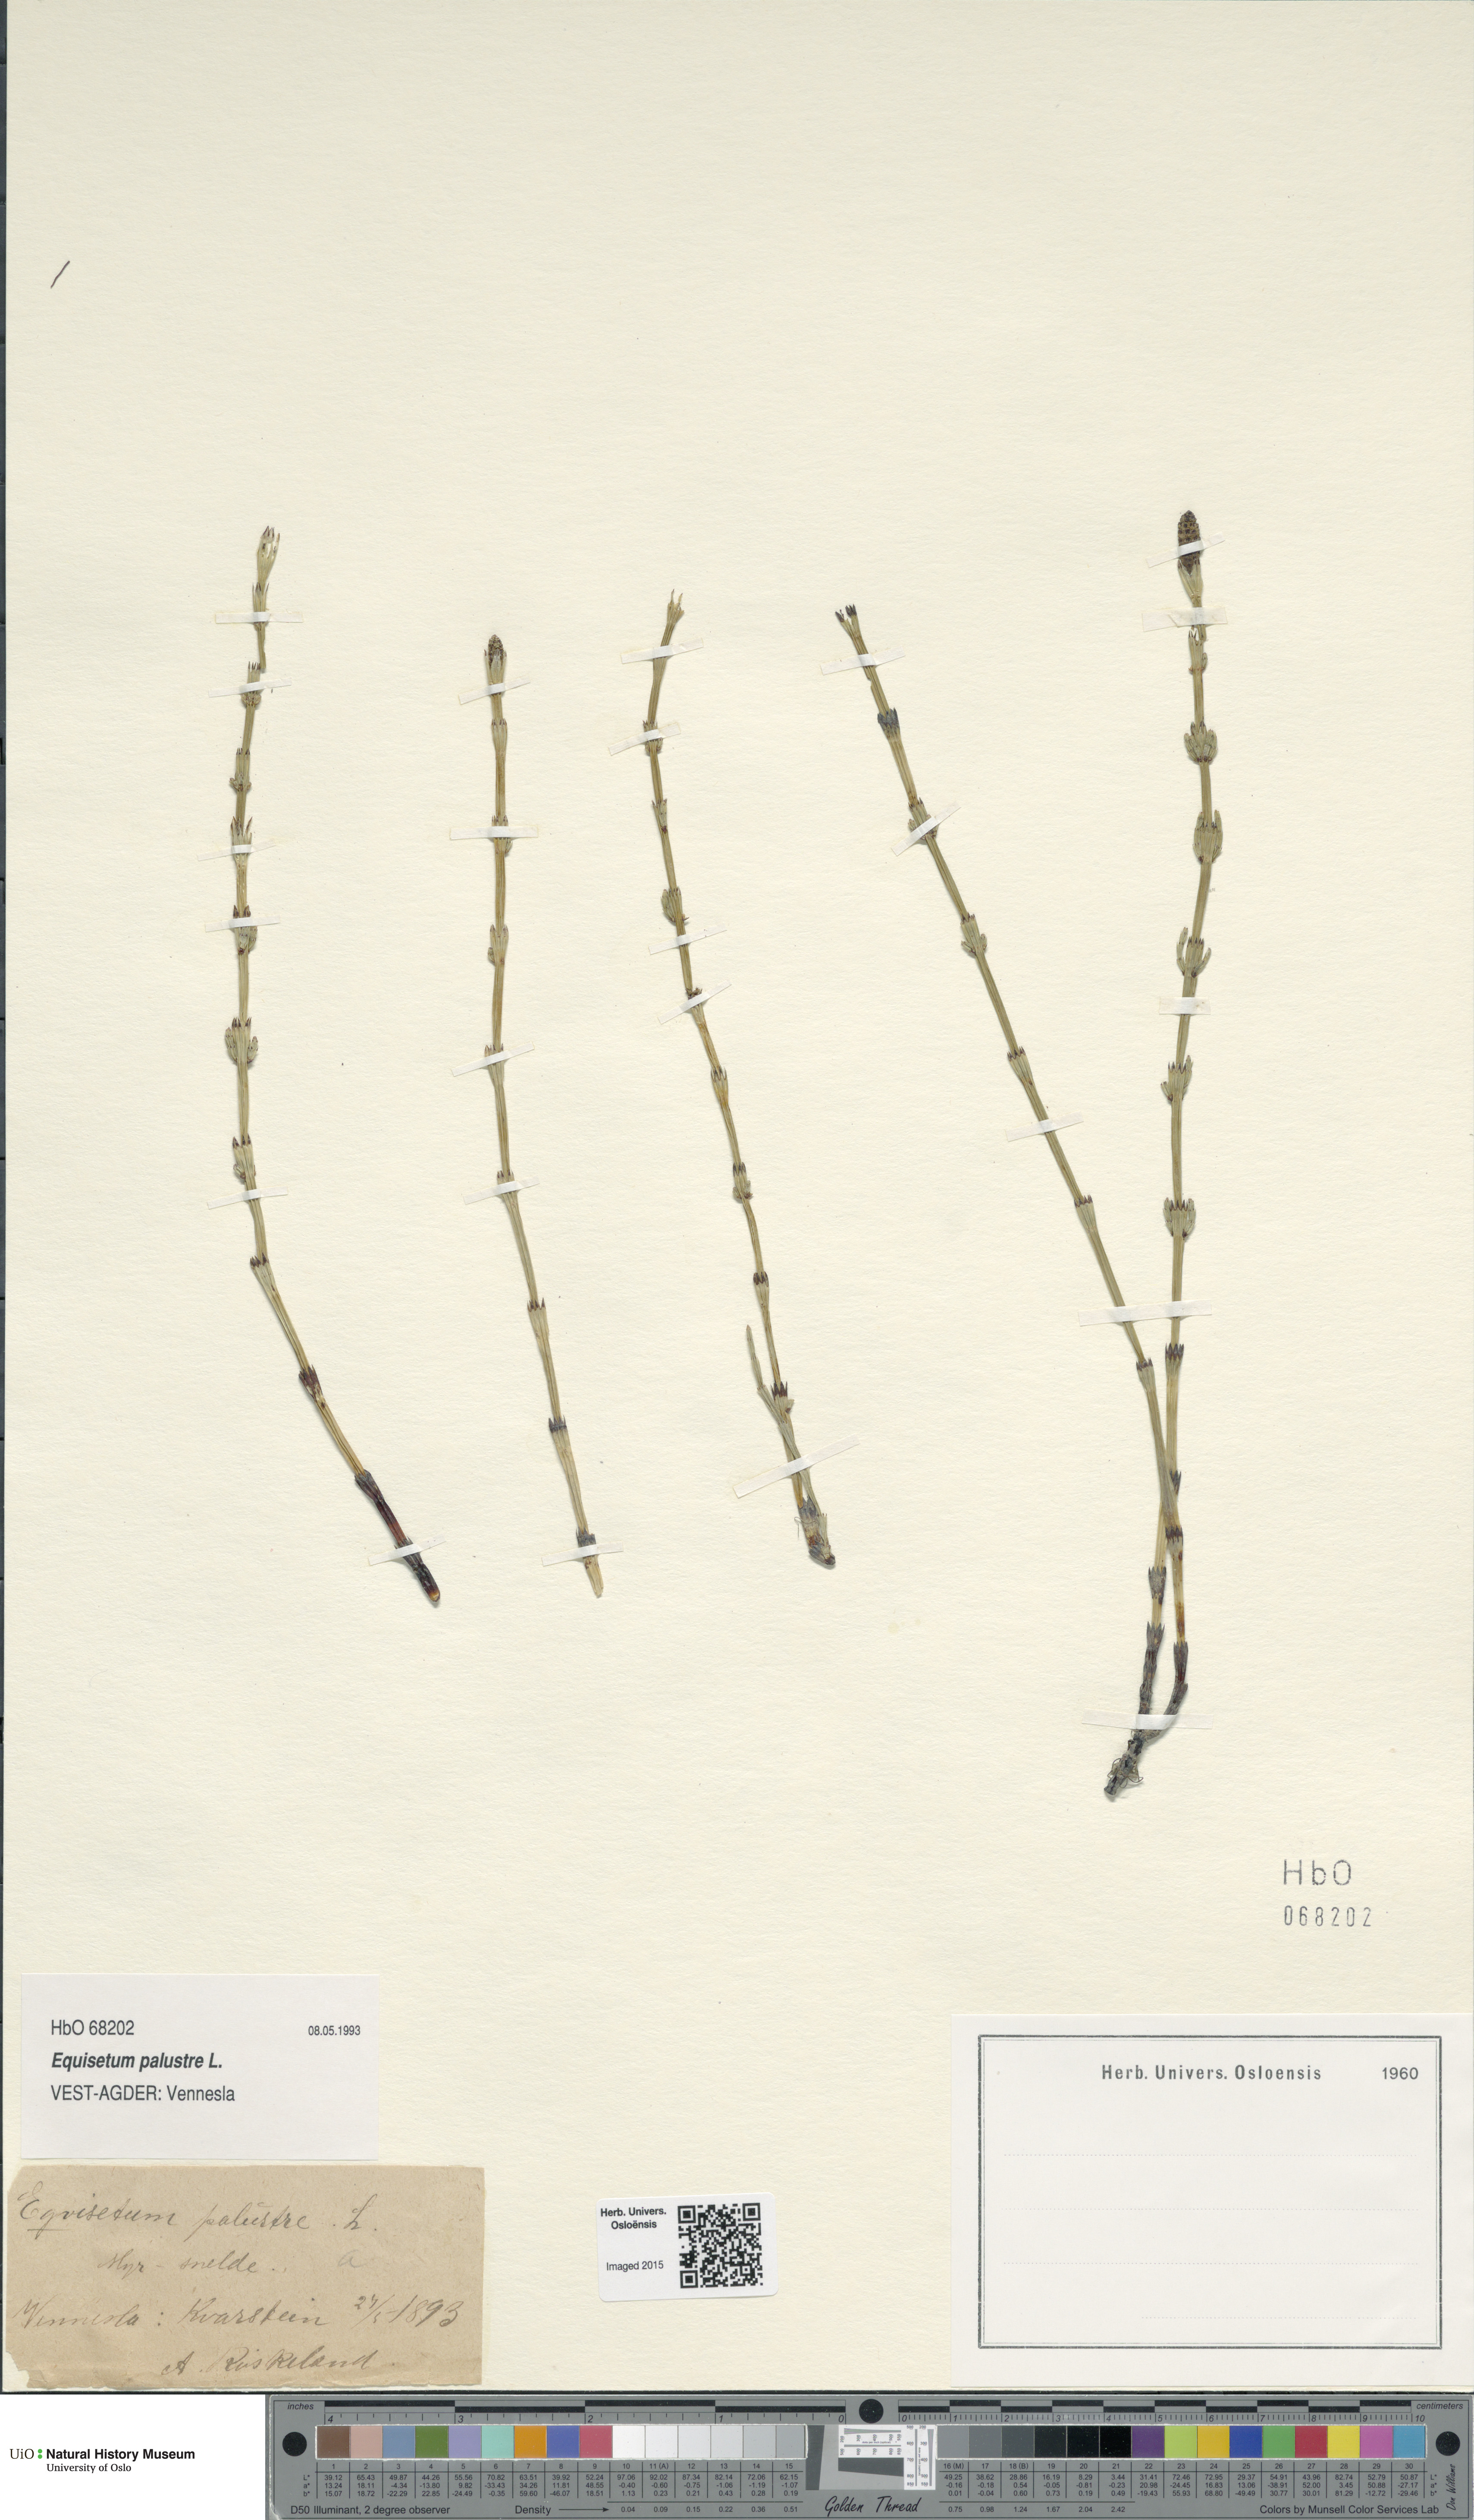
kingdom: Plantae
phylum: Tracheophyta
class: Polypodiopsida
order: Equisetales
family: Equisetaceae
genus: Equisetum
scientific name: Equisetum palustre
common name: Marsh horsetail
